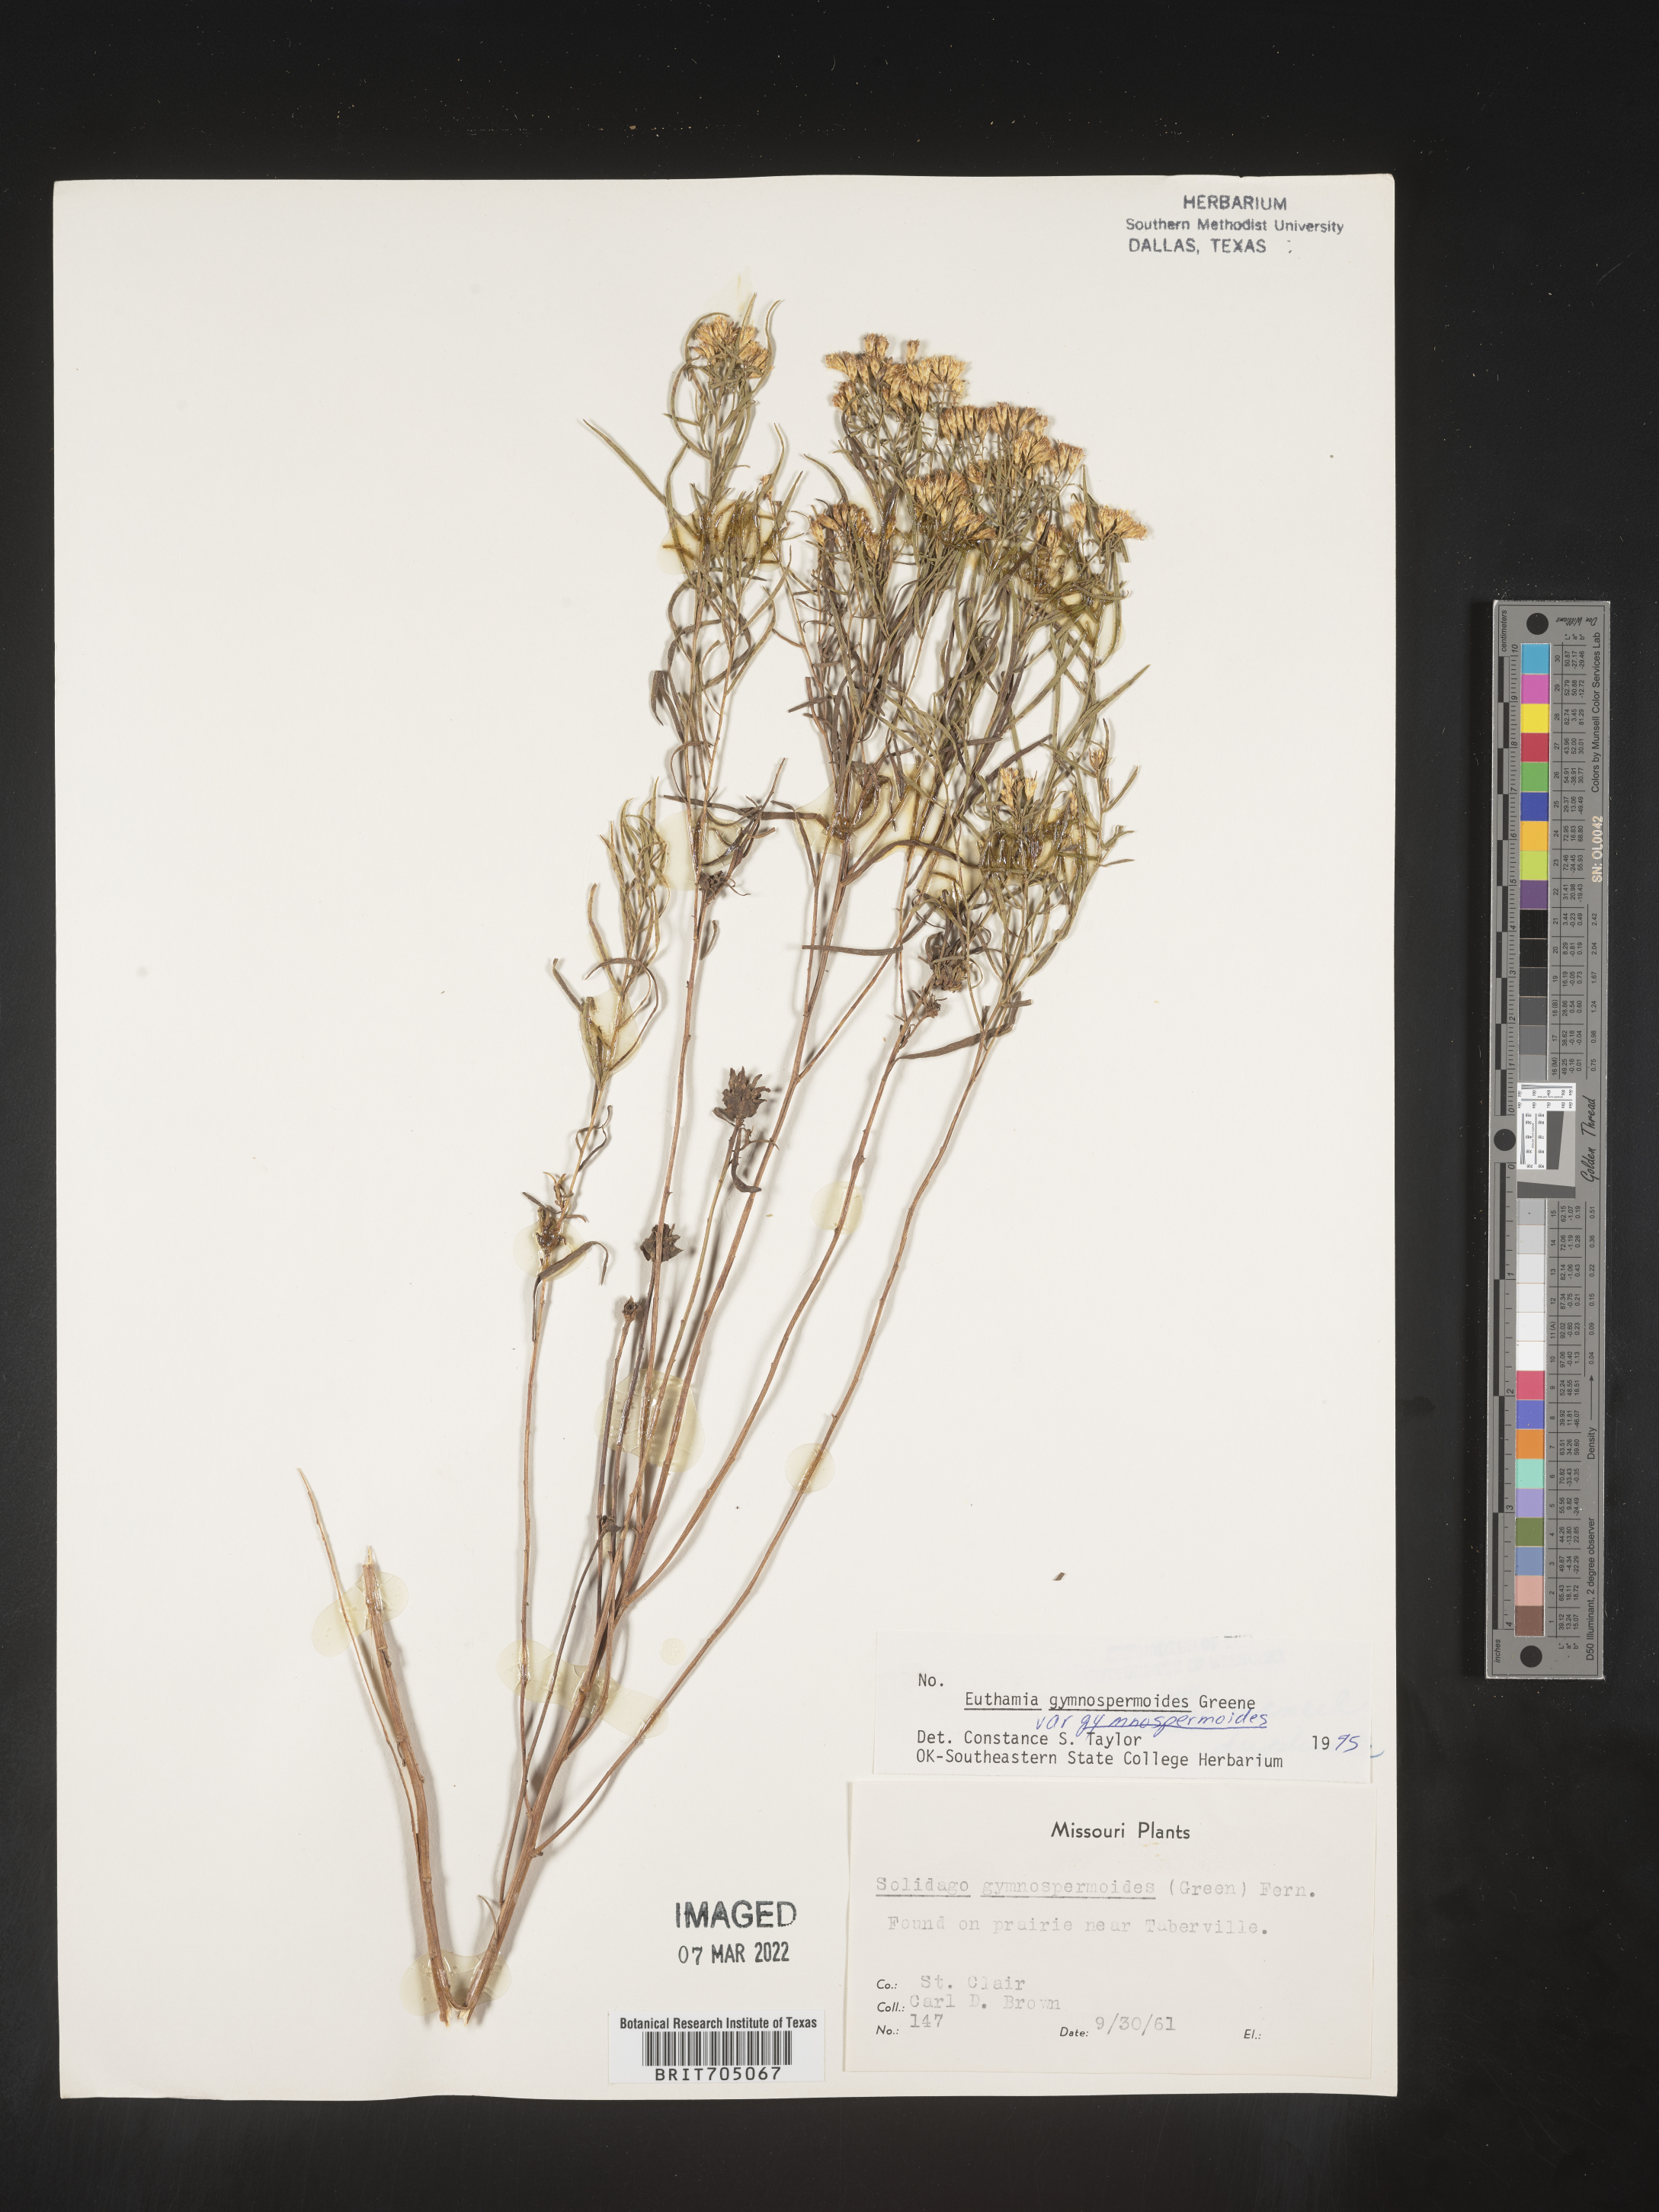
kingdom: Plantae
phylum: Tracheophyta
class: Magnoliopsida
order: Asterales
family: Asteraceae
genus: Euthamia
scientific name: Euthamia gymnospermoides
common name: Great plains goldentop
